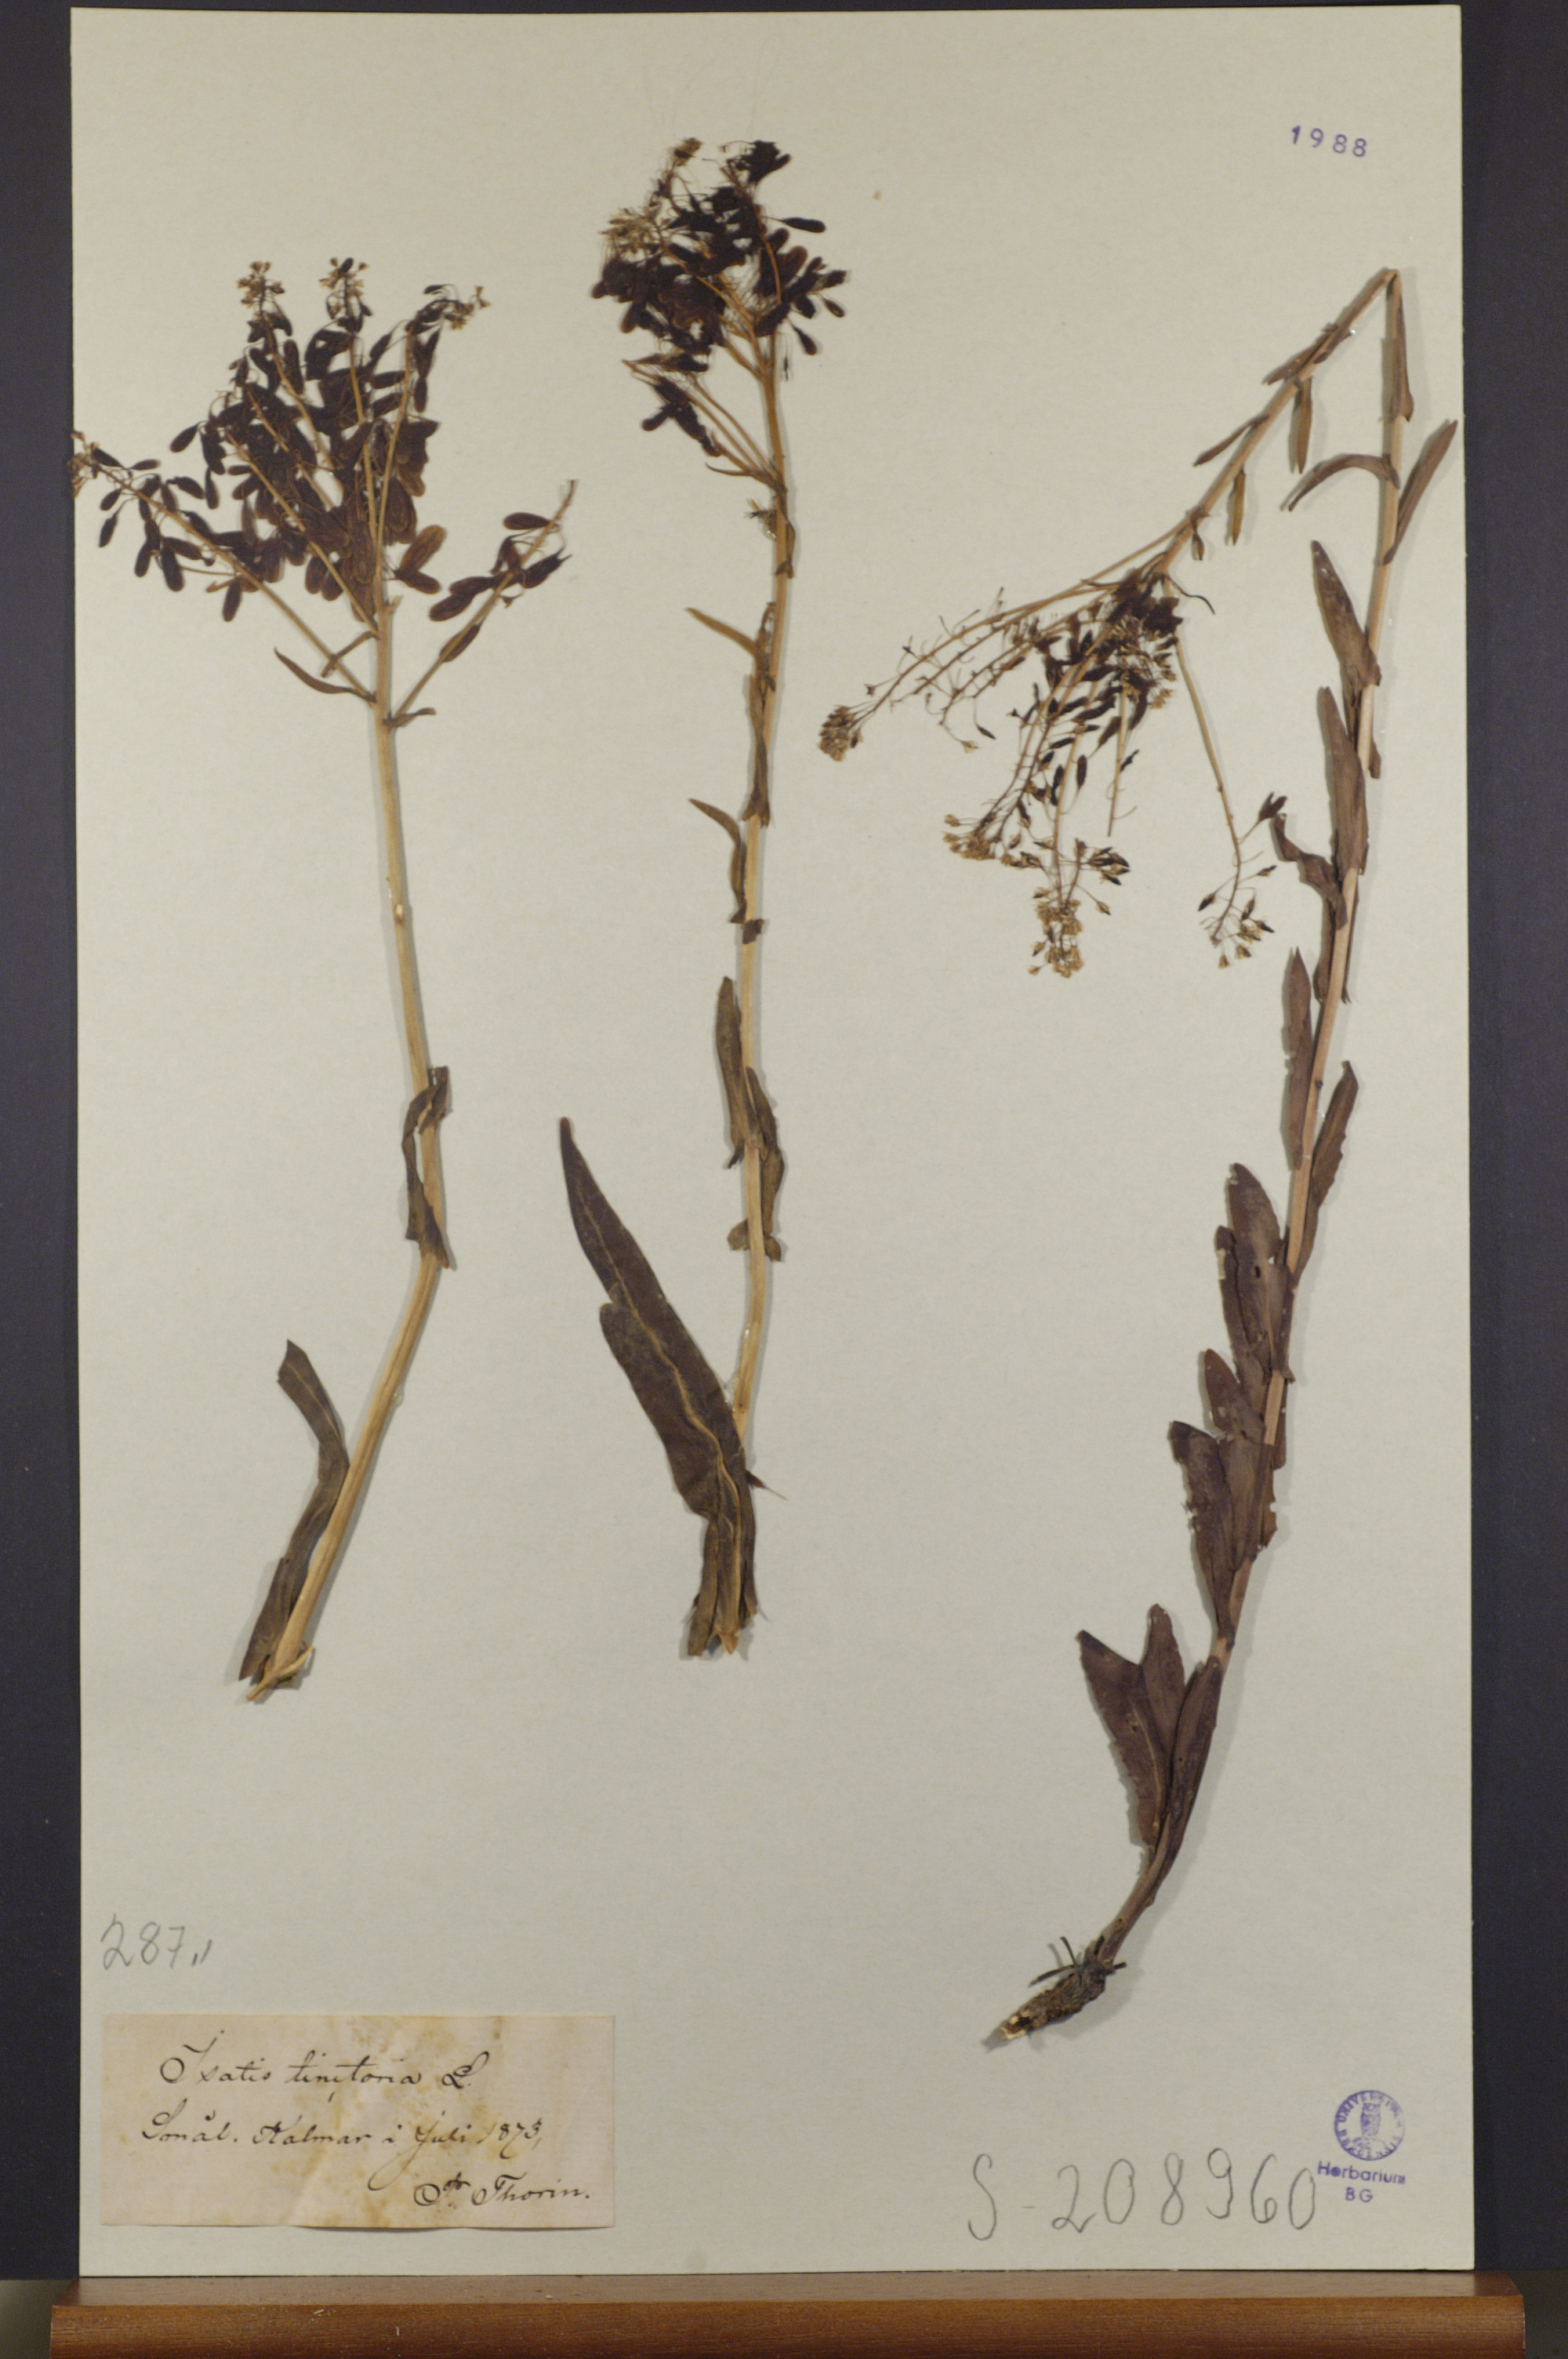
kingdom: Plantae
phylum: Tracheophyta
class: Magnoliopsida
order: Brassicales
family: Brassicaceae
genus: Isatis
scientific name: Isatis tinctoria
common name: Woad
